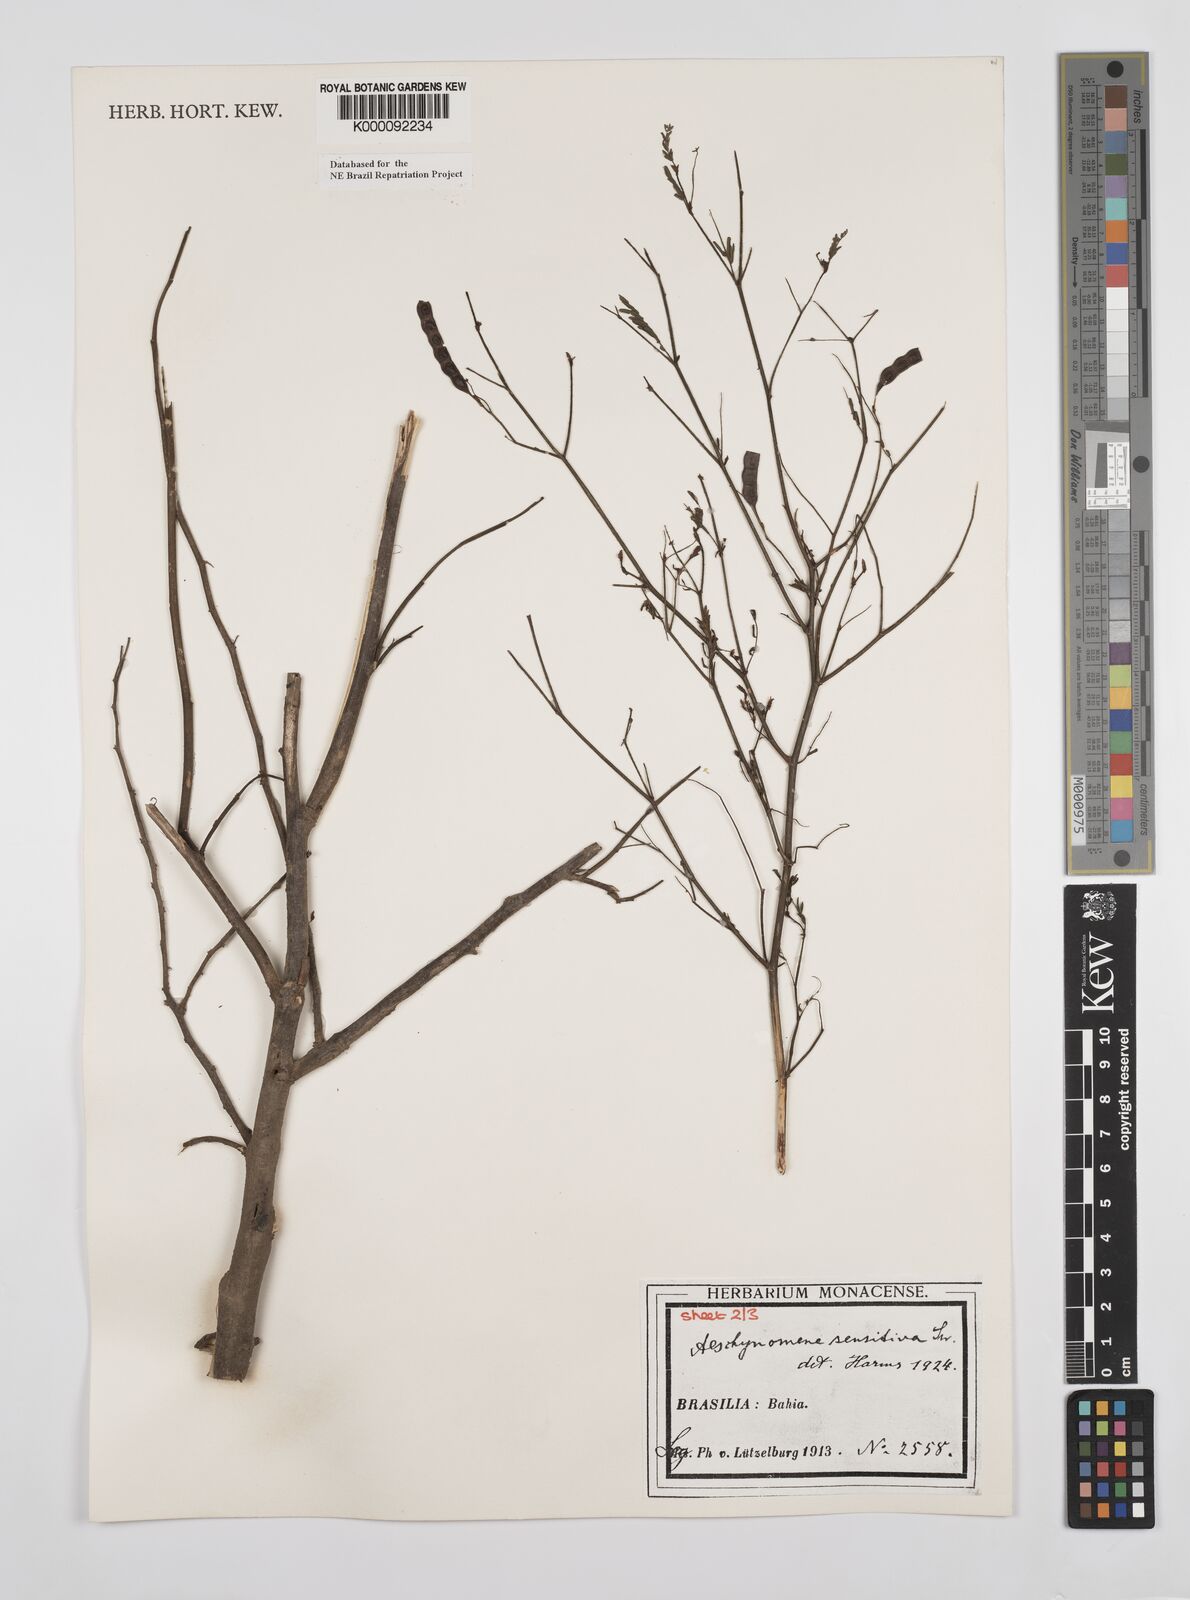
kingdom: Plantae
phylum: Tracheophyta
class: Magnoliopsida
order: Fabales
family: Fabaceae
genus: Aeschynomene
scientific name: Aeschynomene sensitiva
